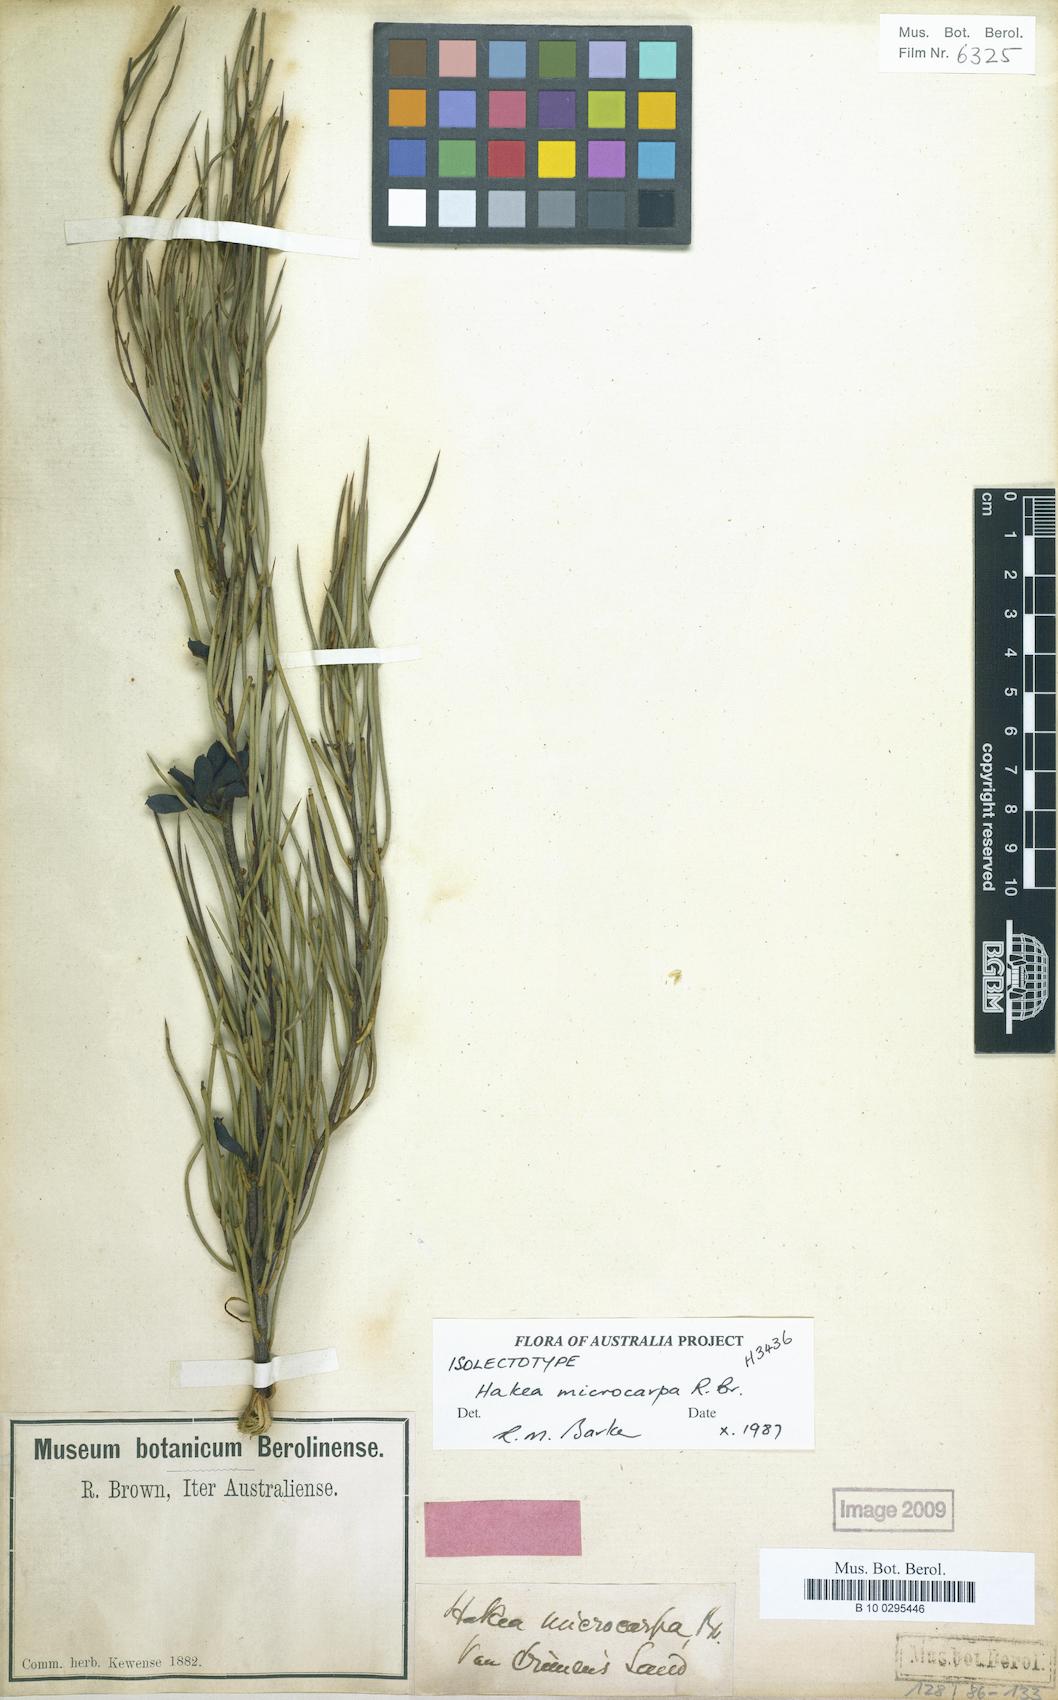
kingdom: Plantae
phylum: Tracheophyta
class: Magnoliopsida
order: Proteales
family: Proteaceae
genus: Hakea
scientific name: Hakea microcarpa
